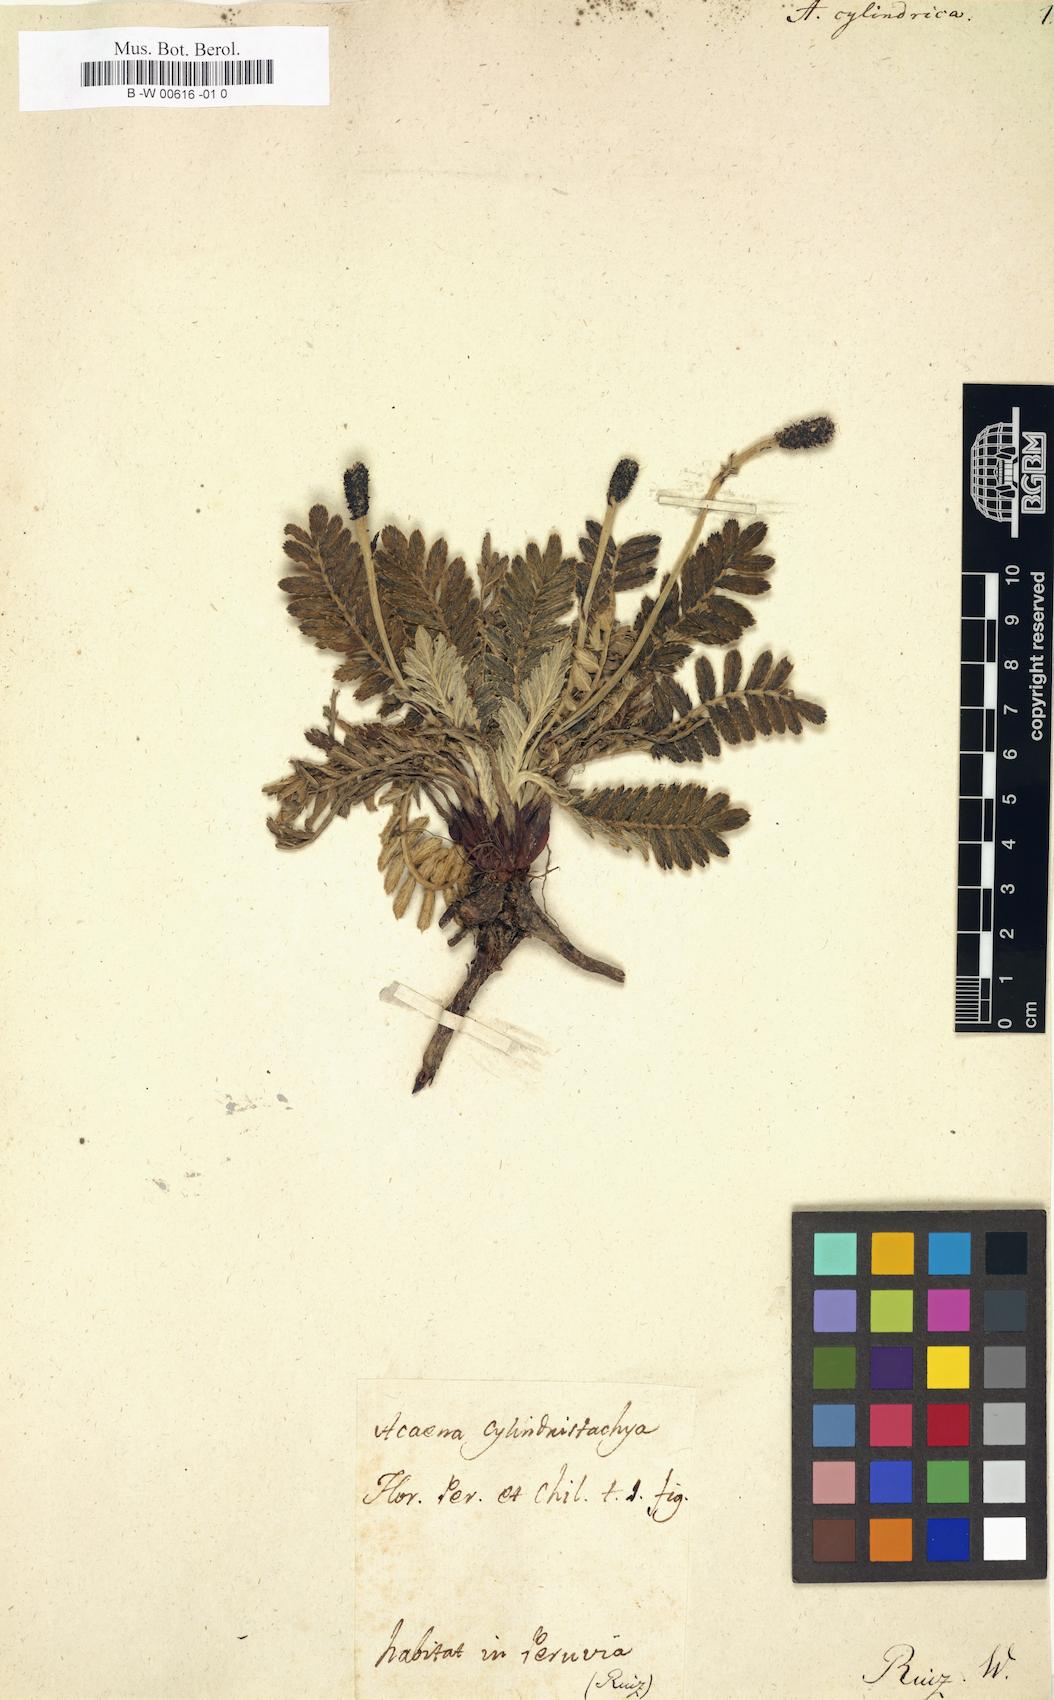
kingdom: Plantae
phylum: Tracheophyta
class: Magnoliopsida
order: Rosales
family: Rosaceae
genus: Acaena
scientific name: Acaena
